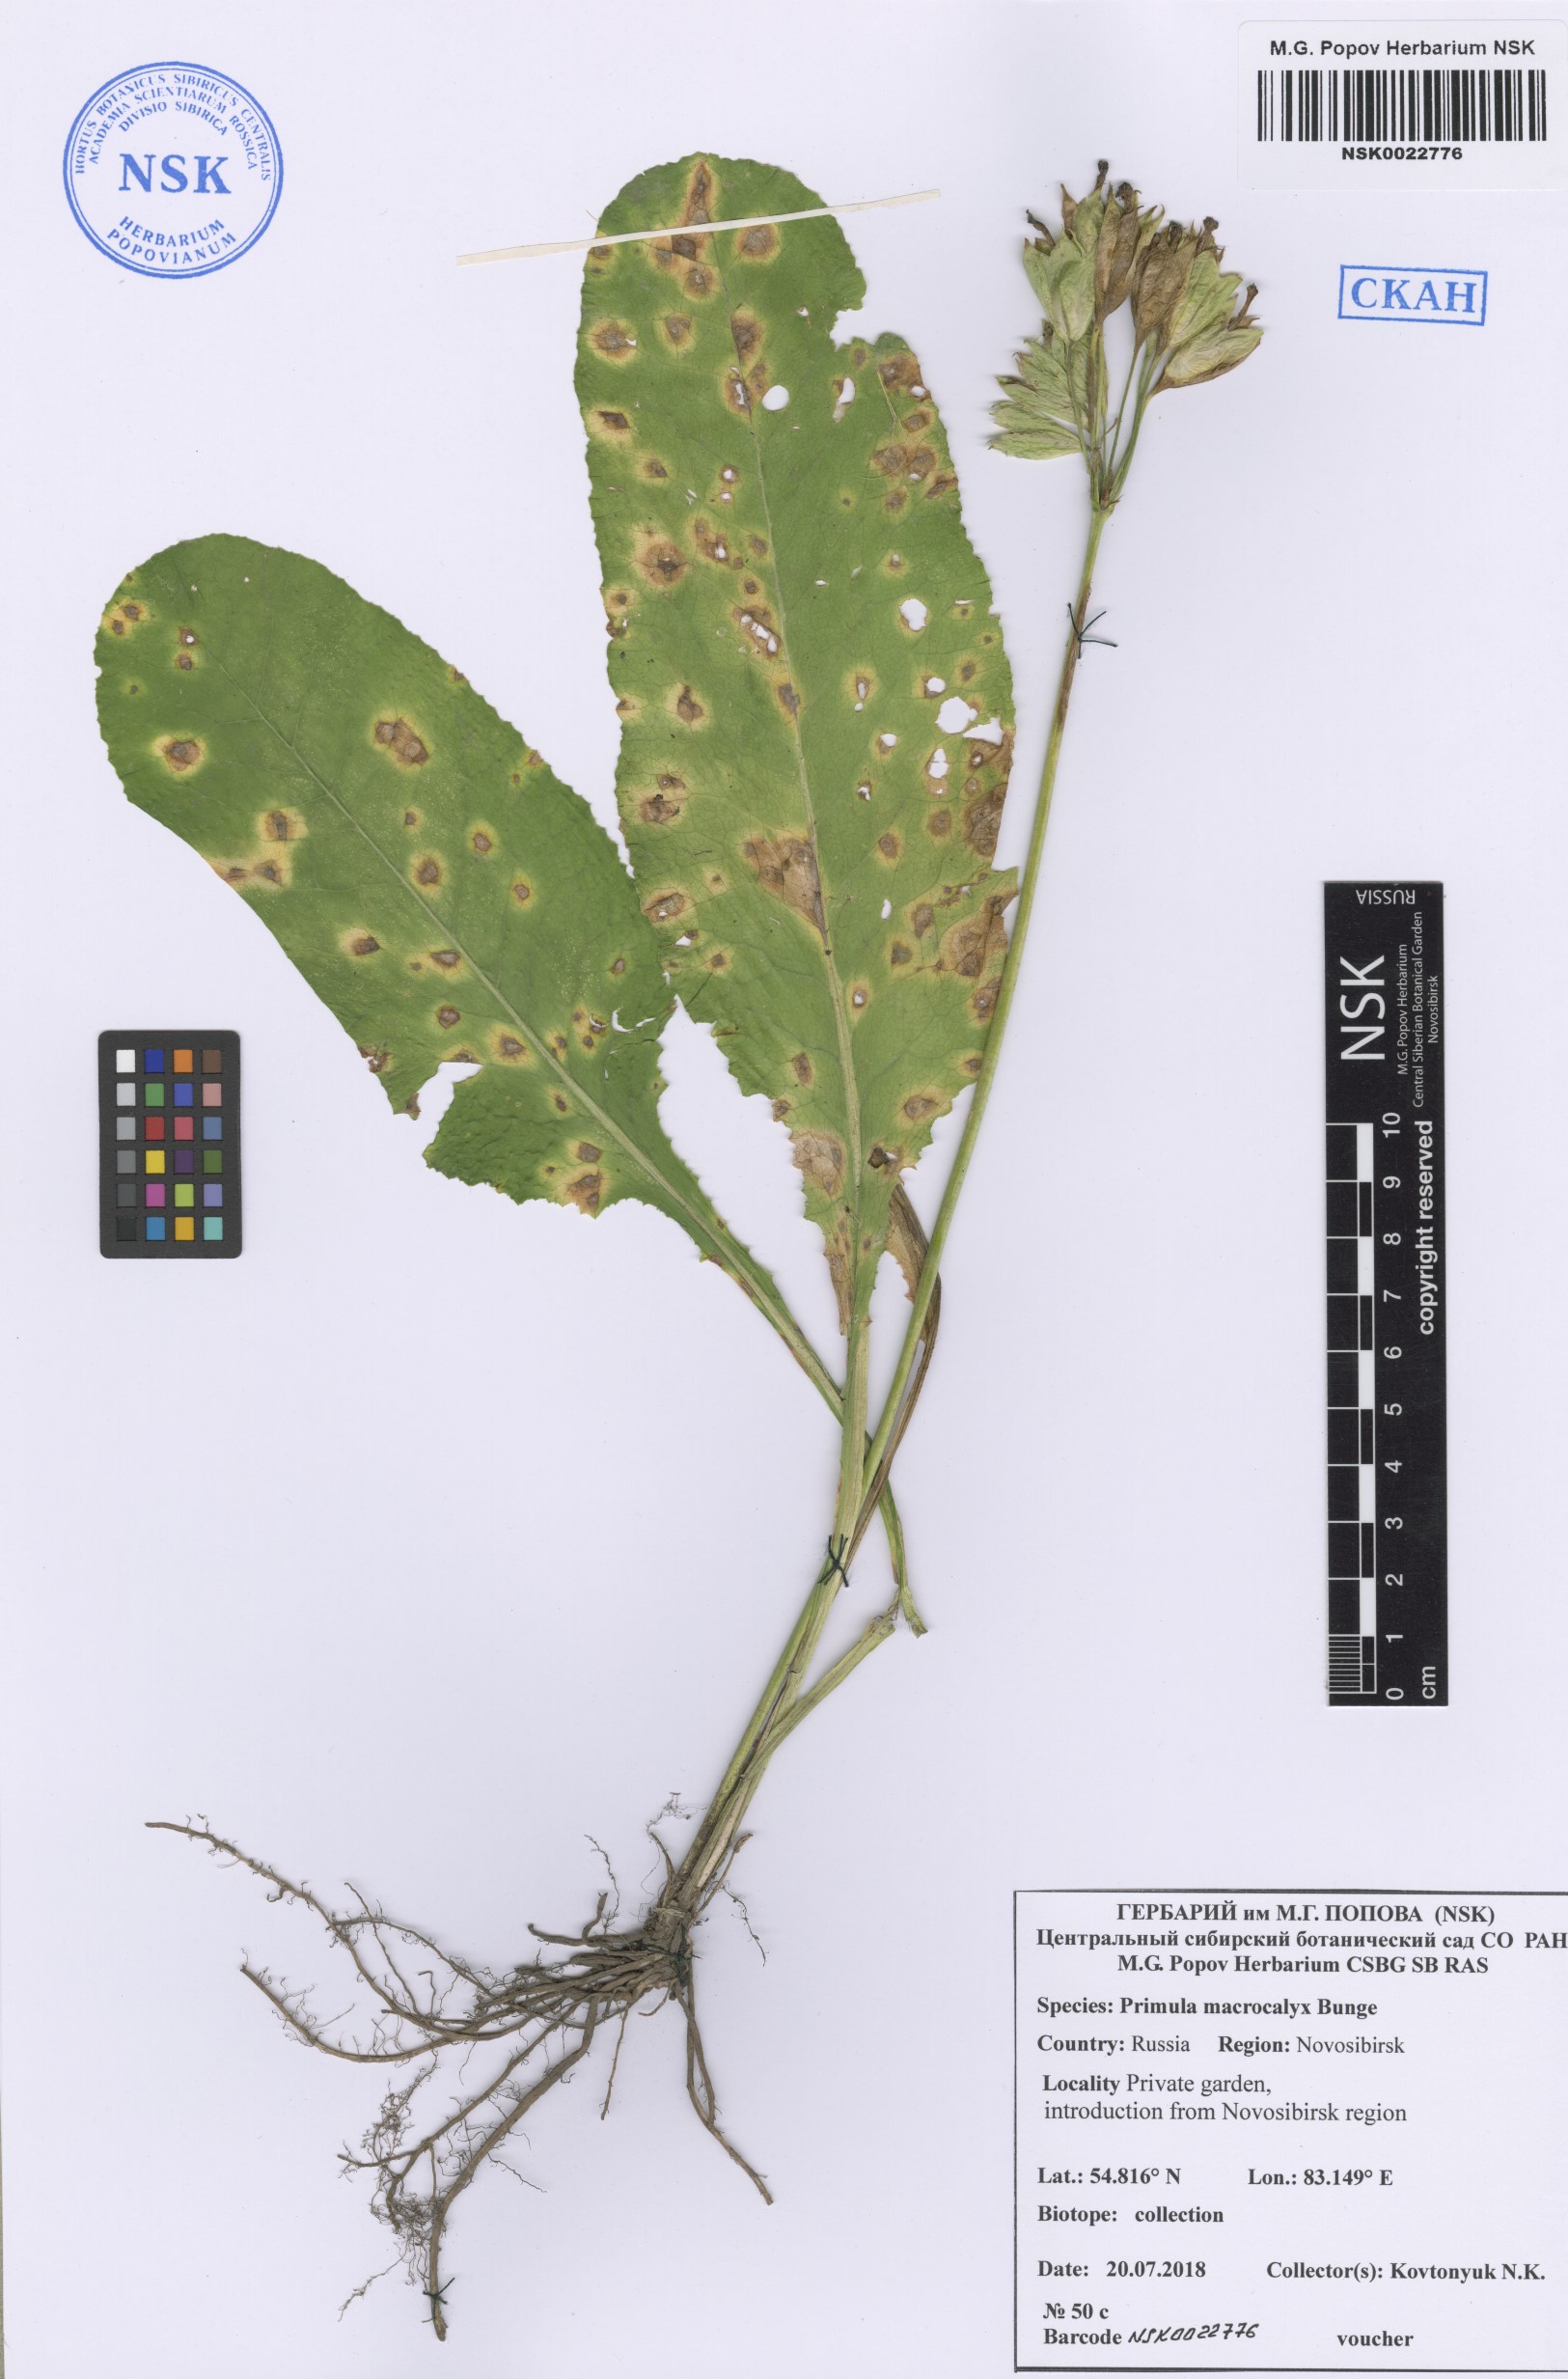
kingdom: Plantae
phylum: Tracheophyta
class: Magnoliopsida
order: Ericales
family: Primulaceae
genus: Primula
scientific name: Primula veris
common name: Cowslip
